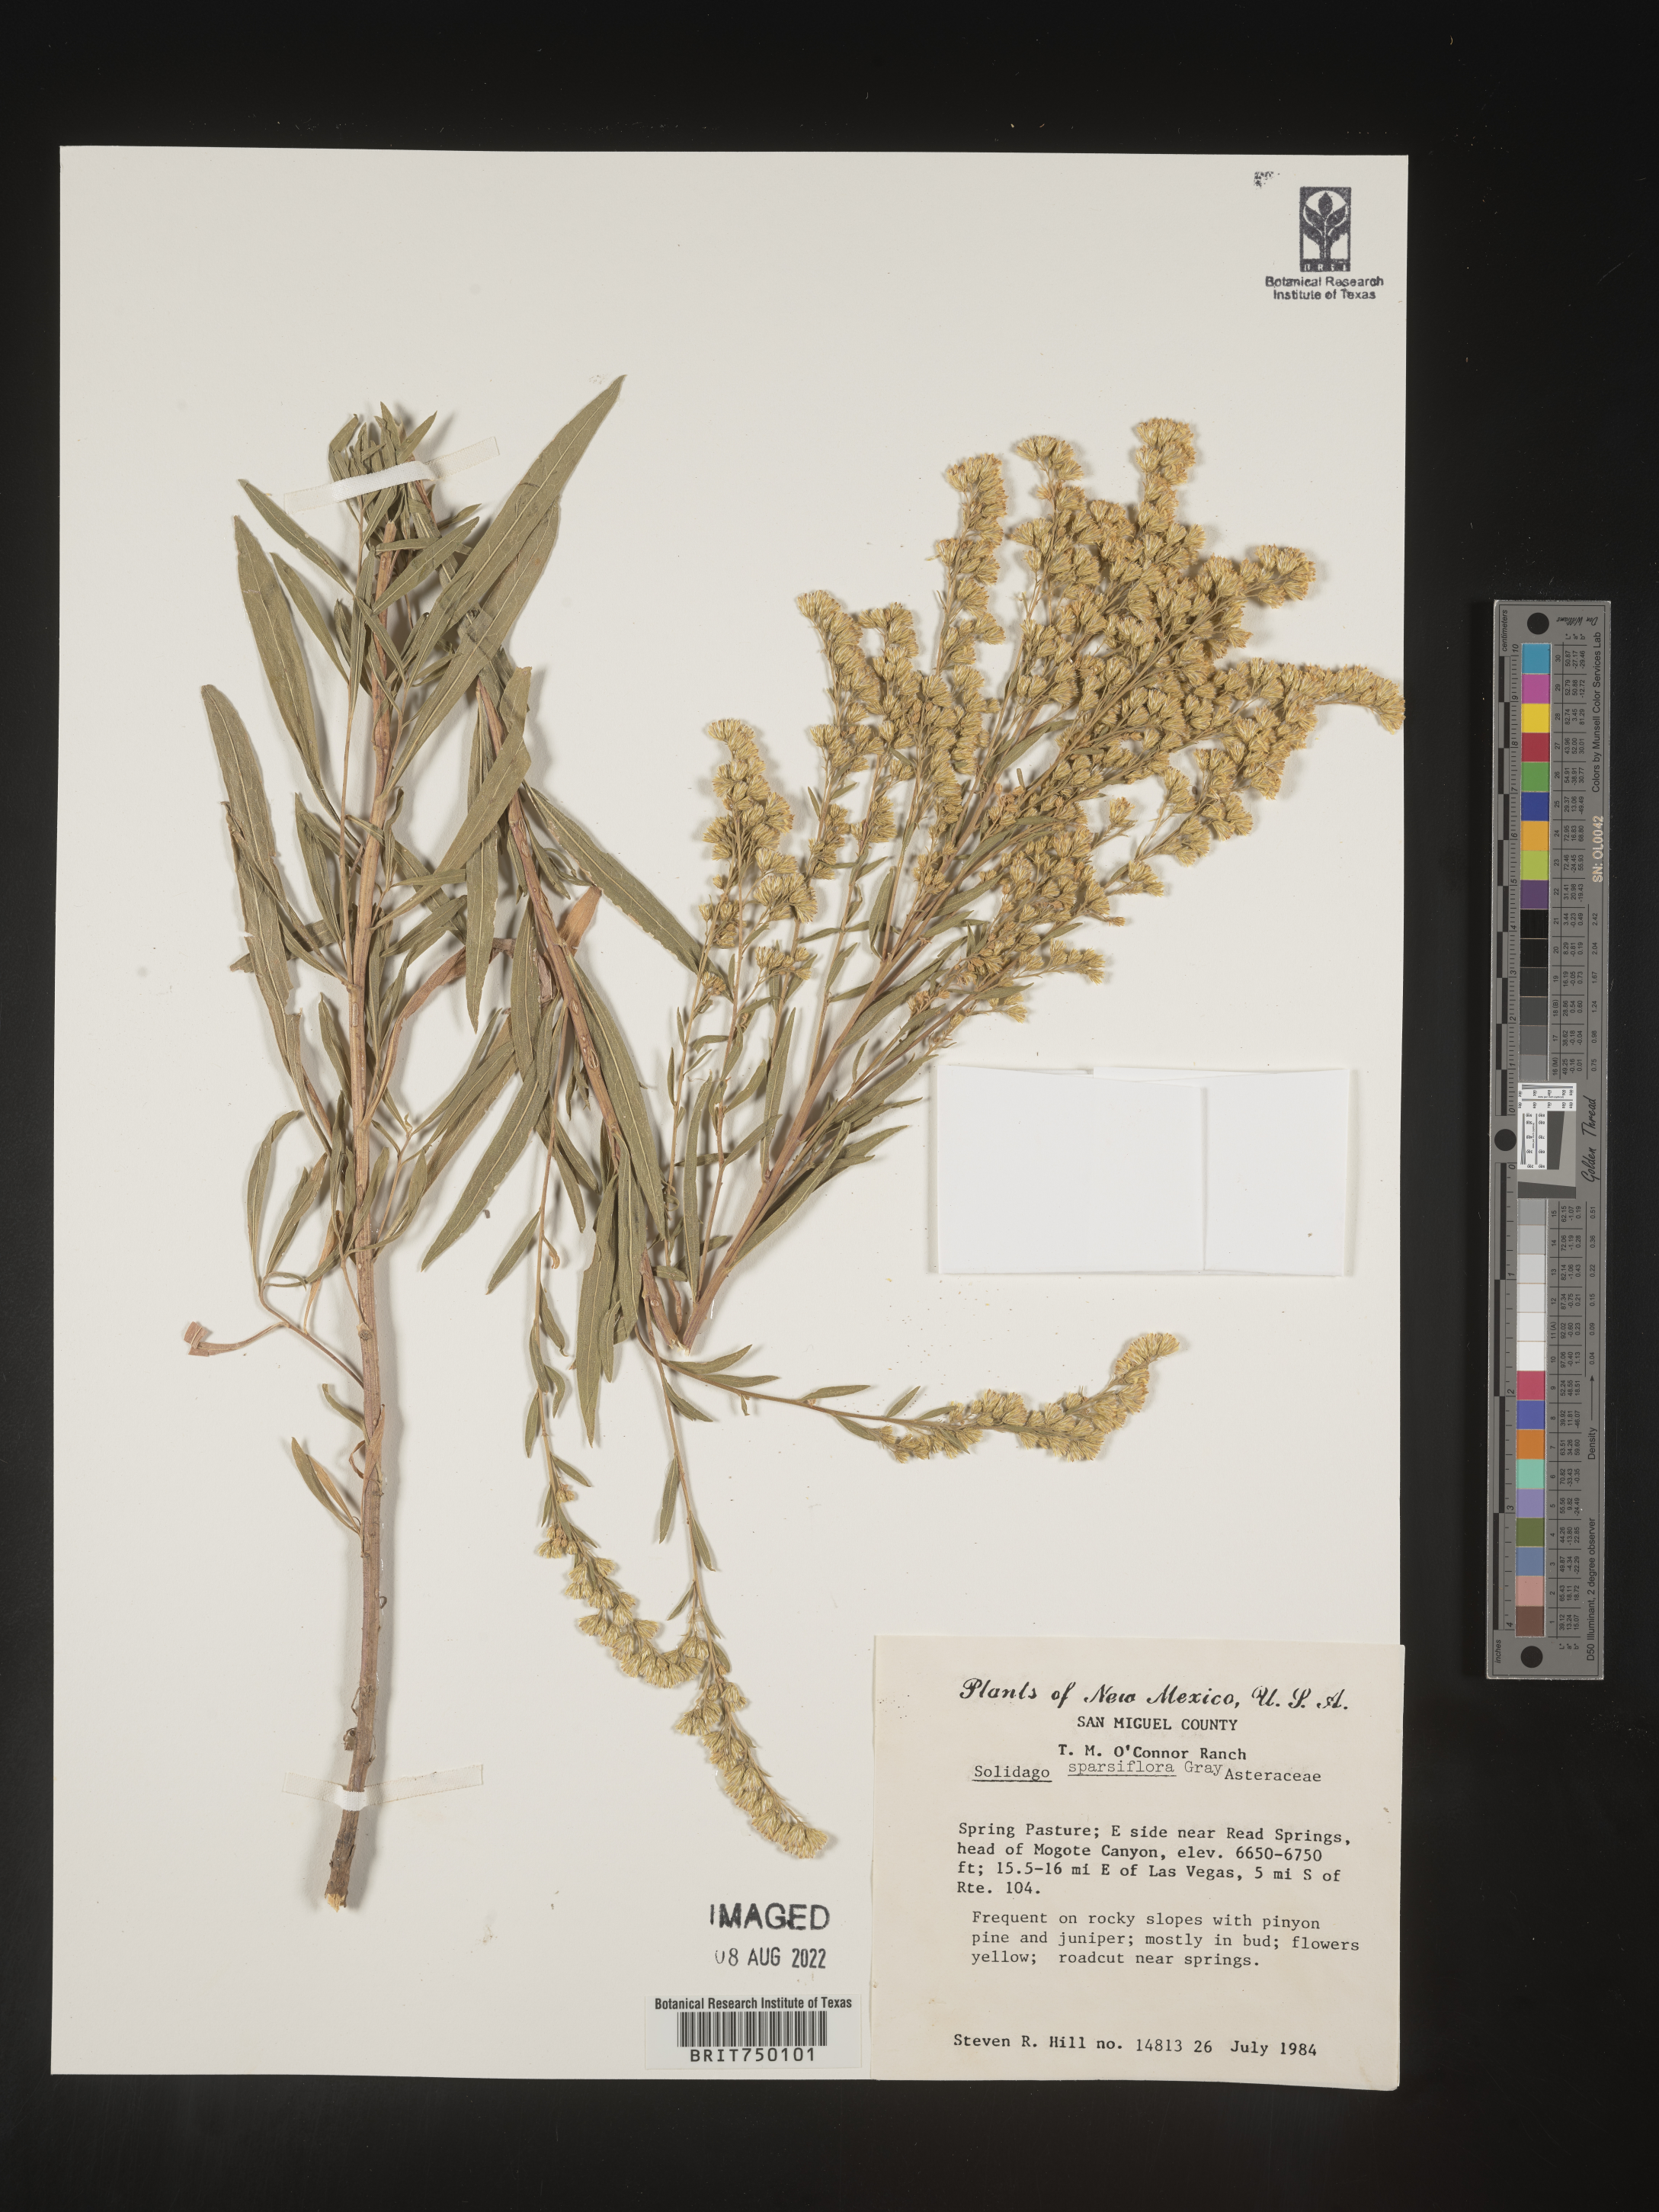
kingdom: Plantae
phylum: Tracheophyta
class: Magnoliopsida
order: Asterales
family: Asteraceae
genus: Solidago
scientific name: Solidago velutina
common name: Three-nerve goldenrod
